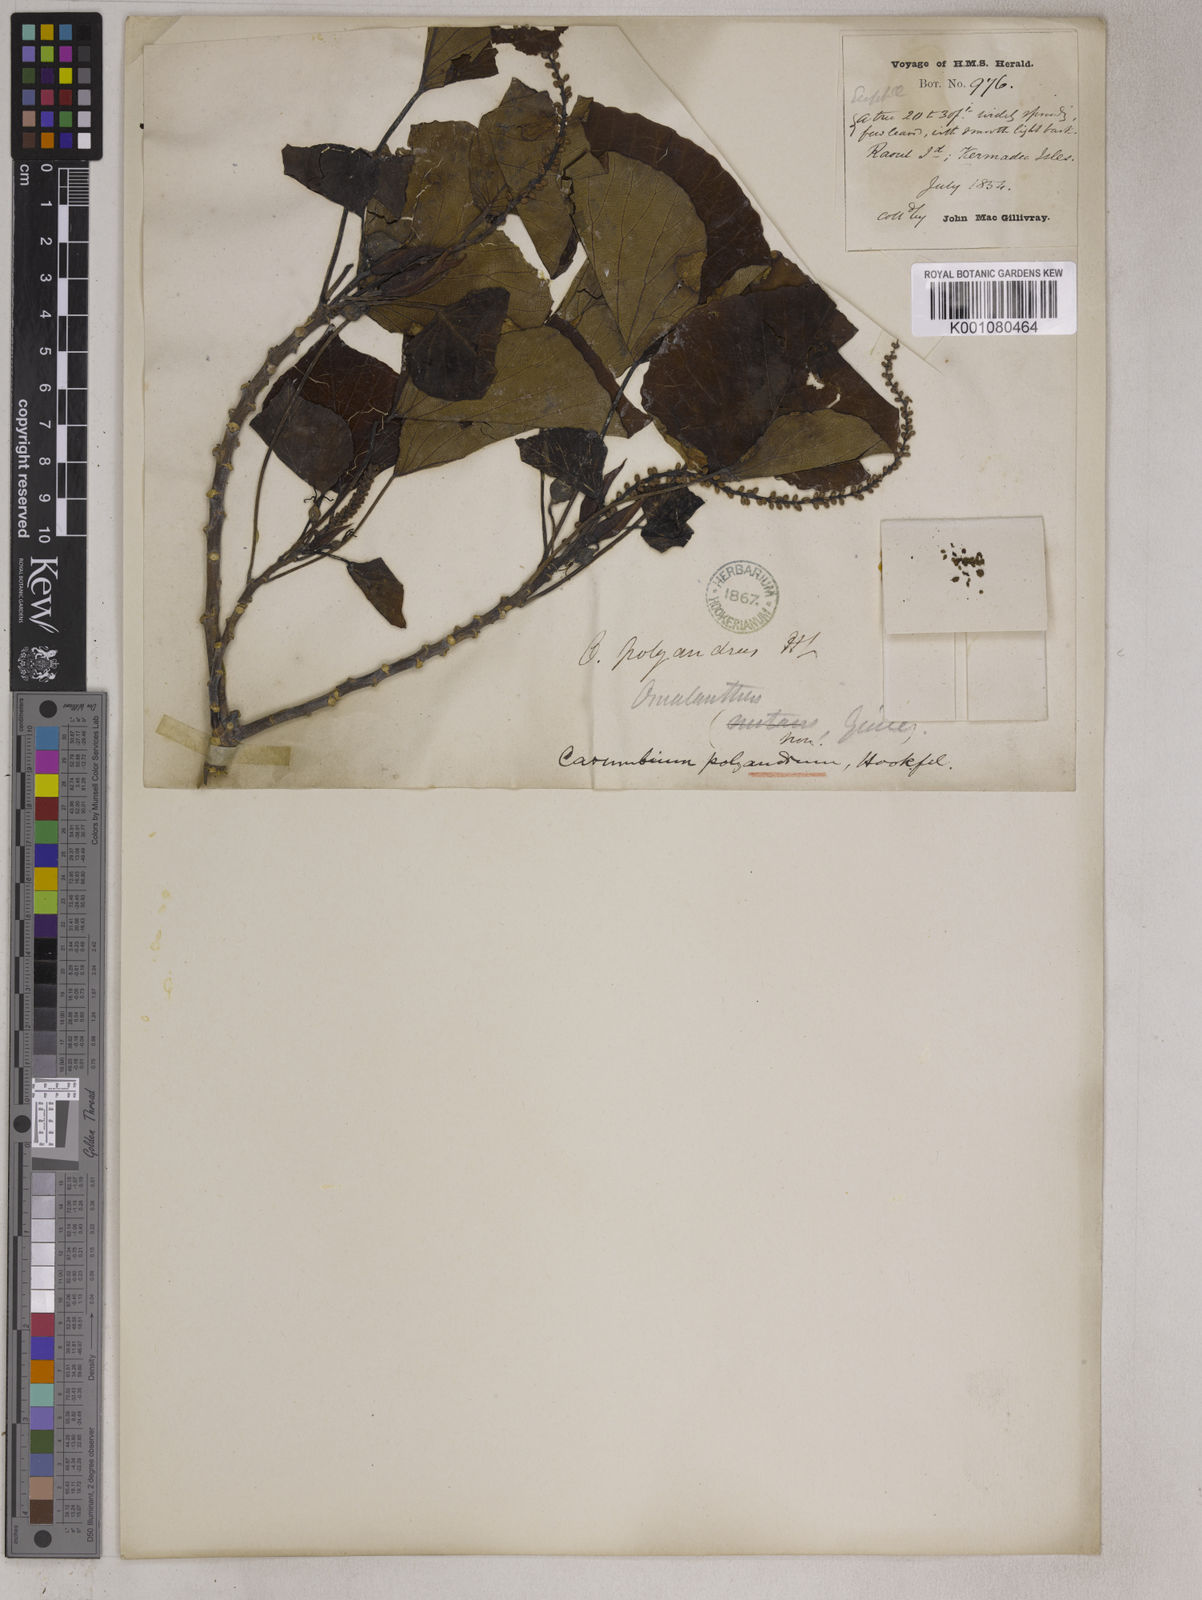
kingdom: Plantae
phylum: Tracheophyta
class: Magnoliopsida
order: Malpighiales
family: Euphorbiaceae
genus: Homalanthus
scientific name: Homalanthus
